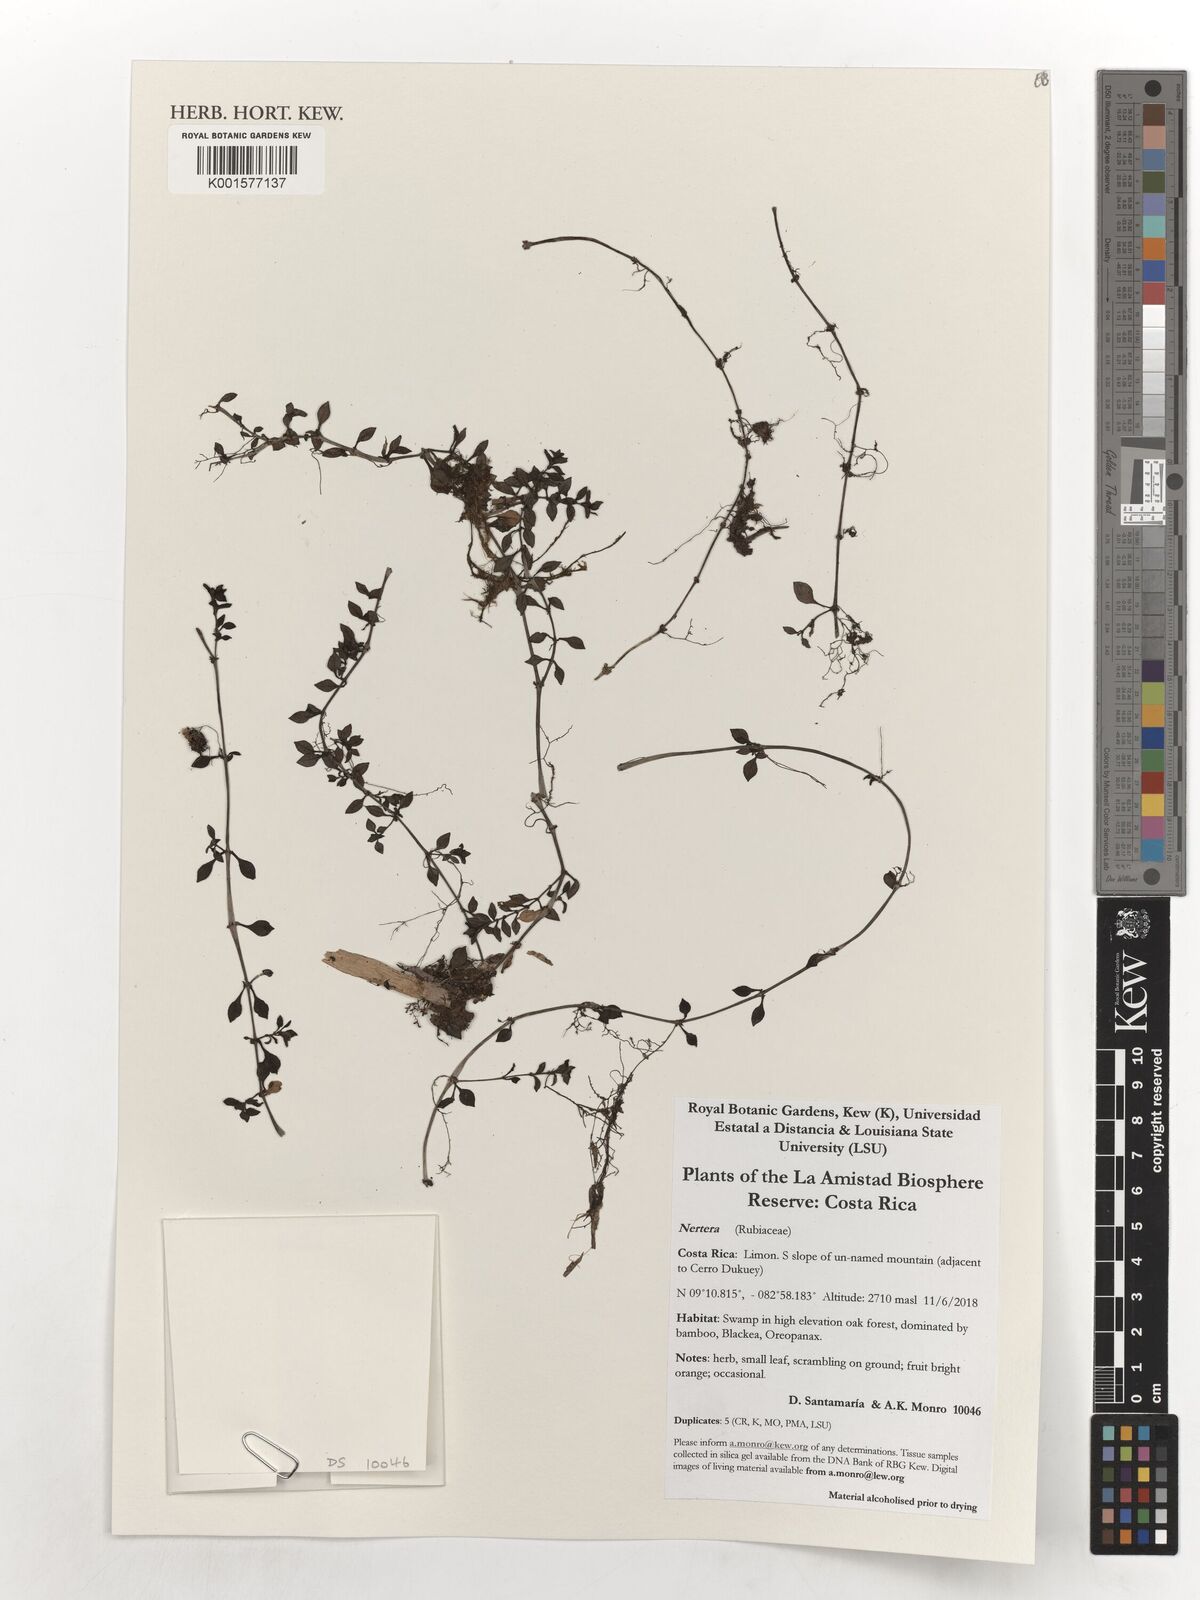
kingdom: Plantae
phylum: Tracheophyta
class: Magnoliopsida
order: Gentianales
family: Rubiaceae
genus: Nertera
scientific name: Nertera
